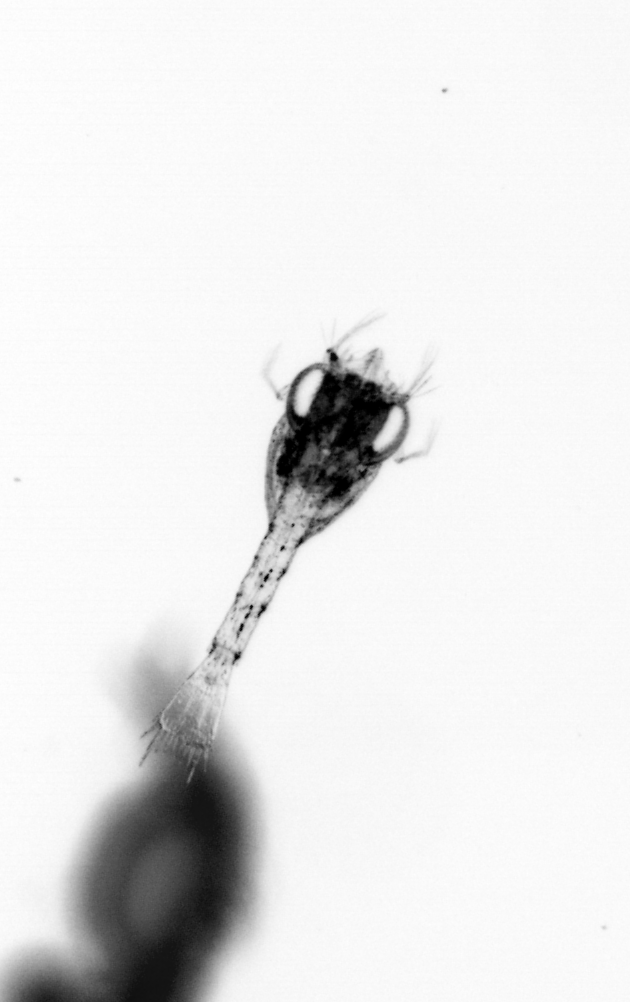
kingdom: Animalia
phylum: Arthropoda
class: Malacostraca
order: Decapoda
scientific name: Decapoda
